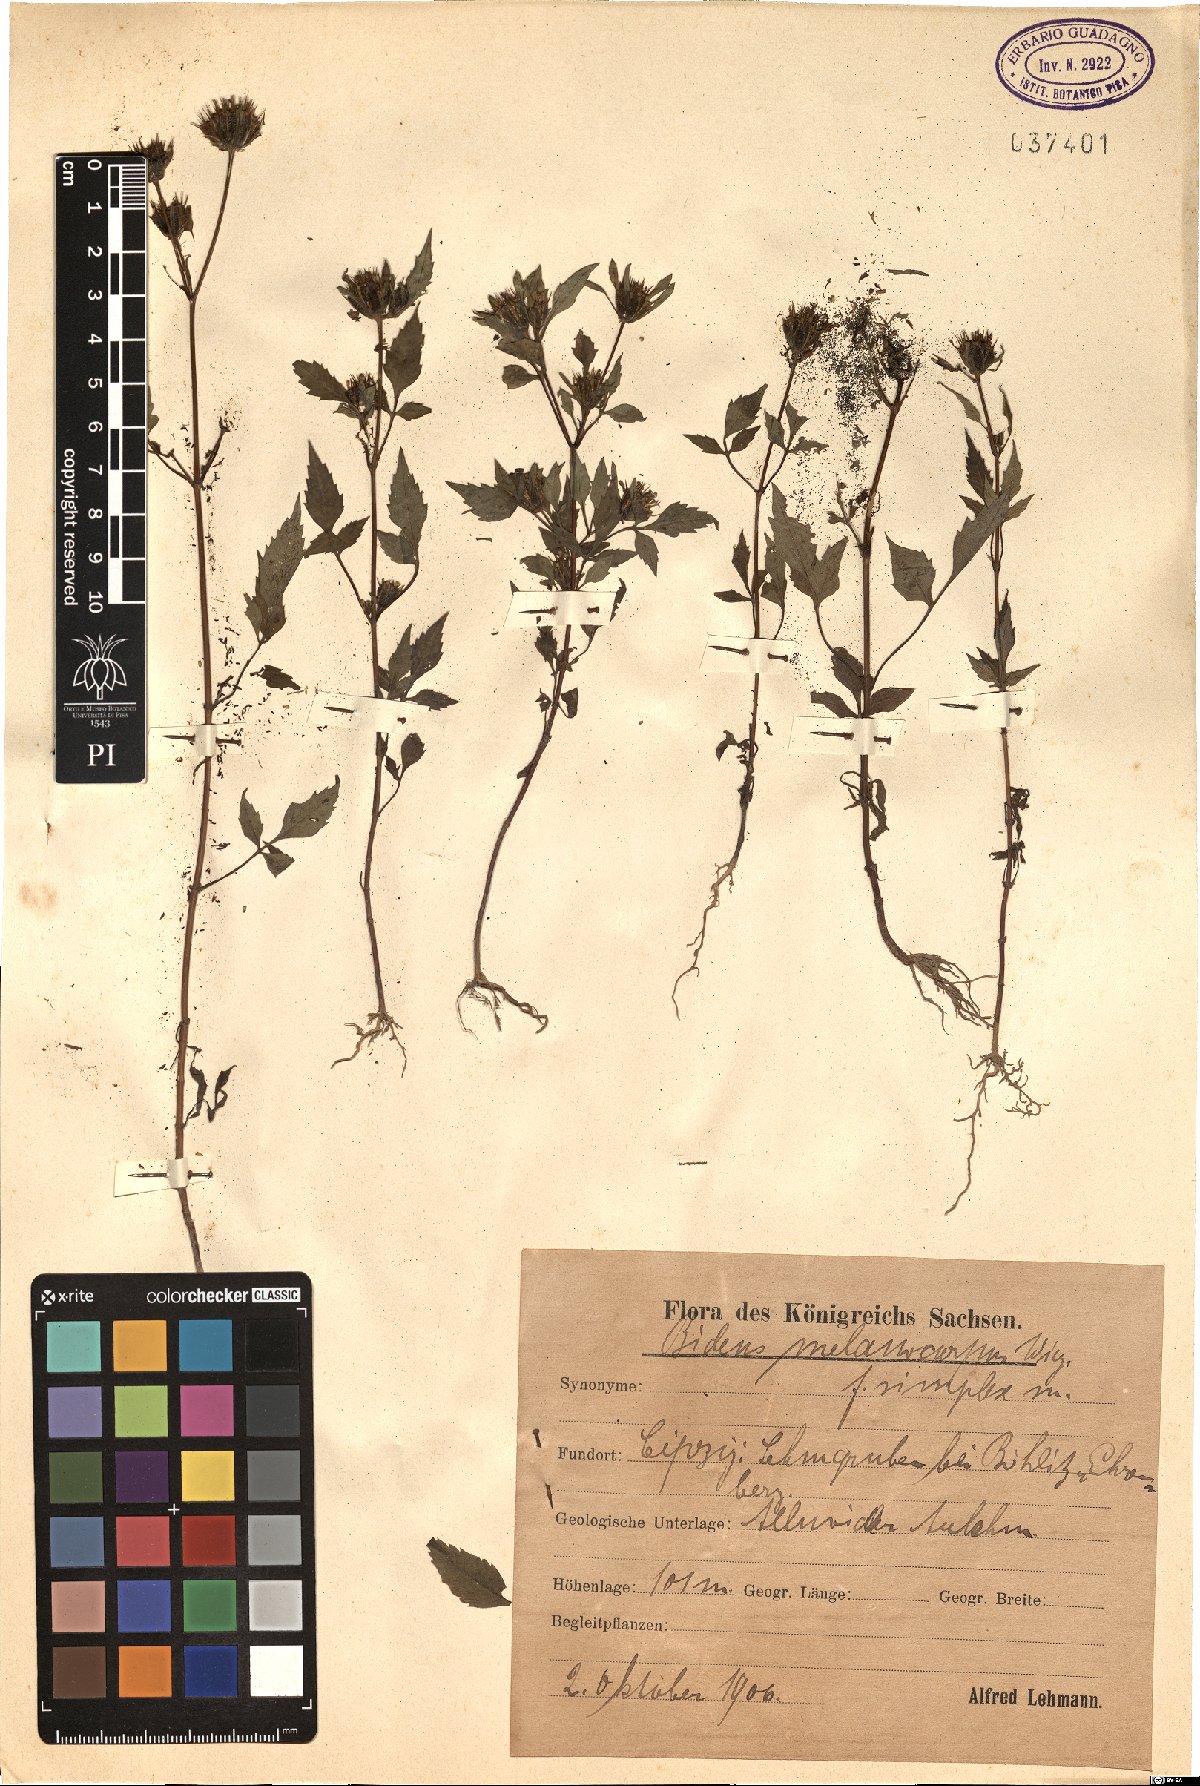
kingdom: Plantae
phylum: Tracheophyta
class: Magnoliopsida
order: Asterales
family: Asteraceae
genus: Bidens
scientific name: Bidens frondosa
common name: Beggarticks
